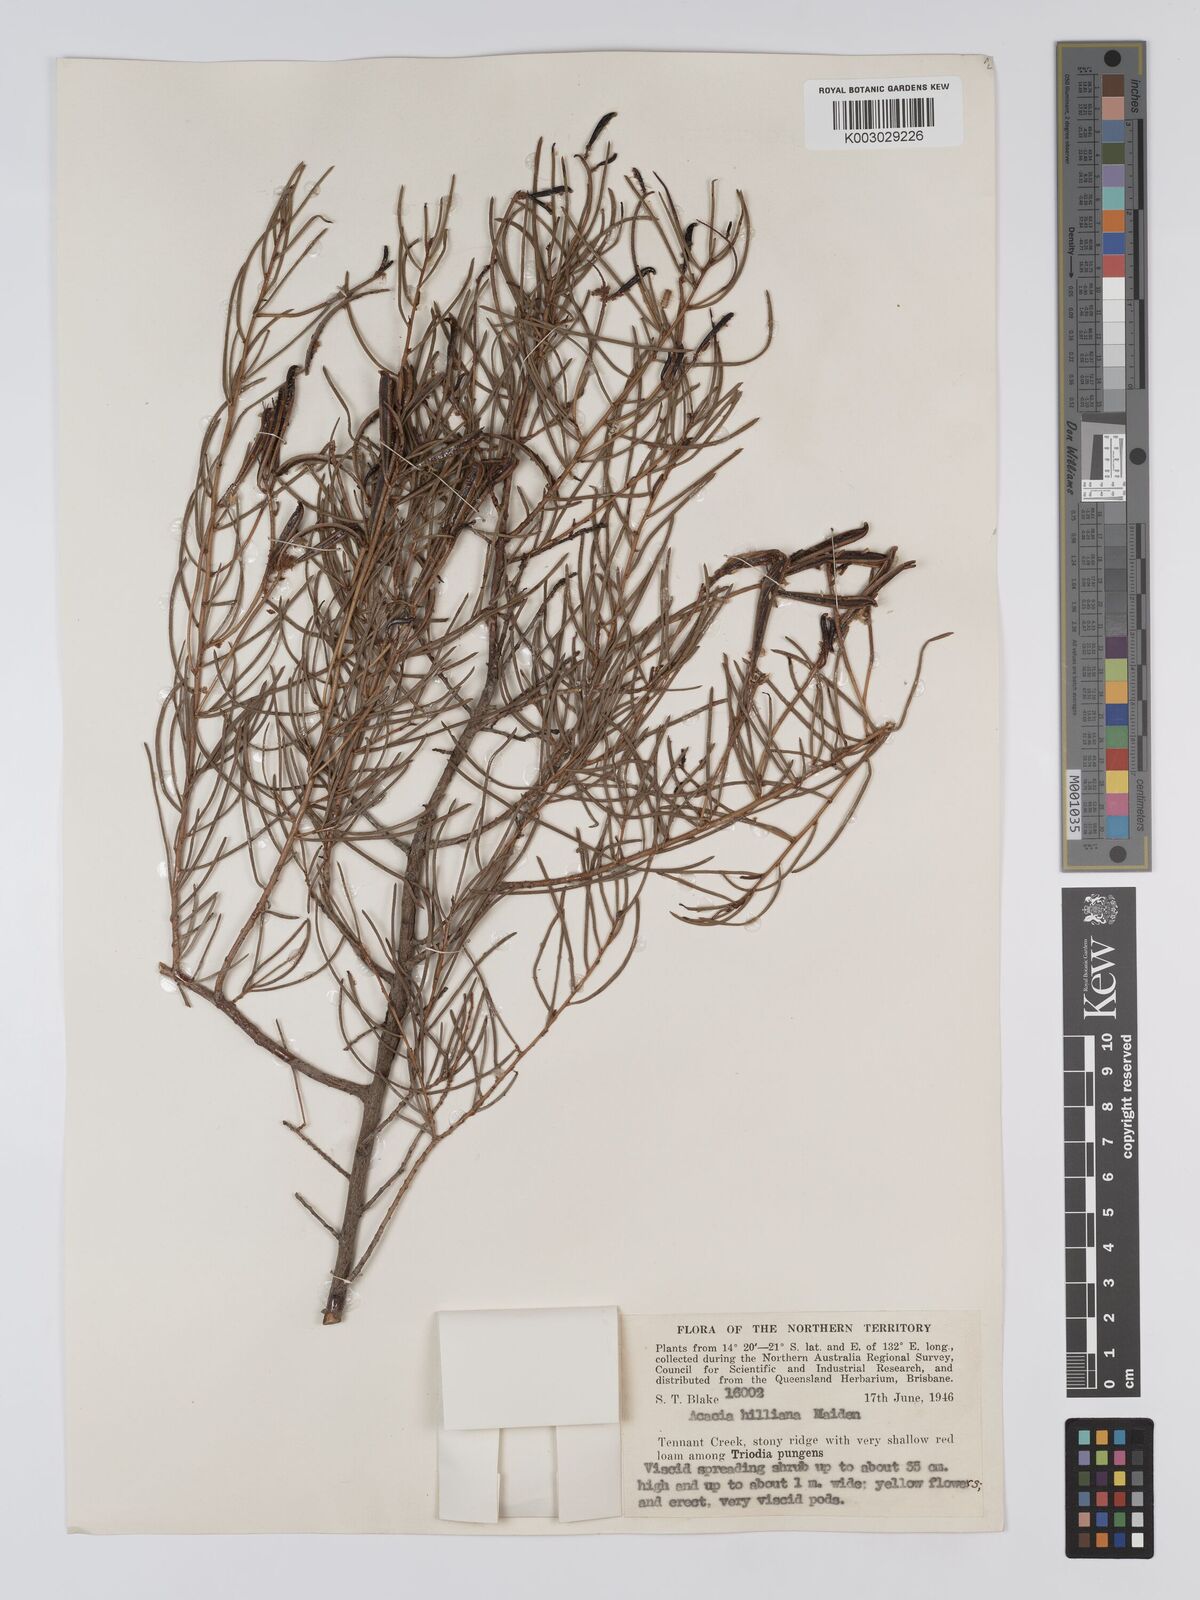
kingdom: Plantae
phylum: Tracheophyta
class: Magnoliopsida
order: Fabales
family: Fabaceae
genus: Acacia
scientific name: Acacia hilliana
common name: Hill's tabletop wattle
